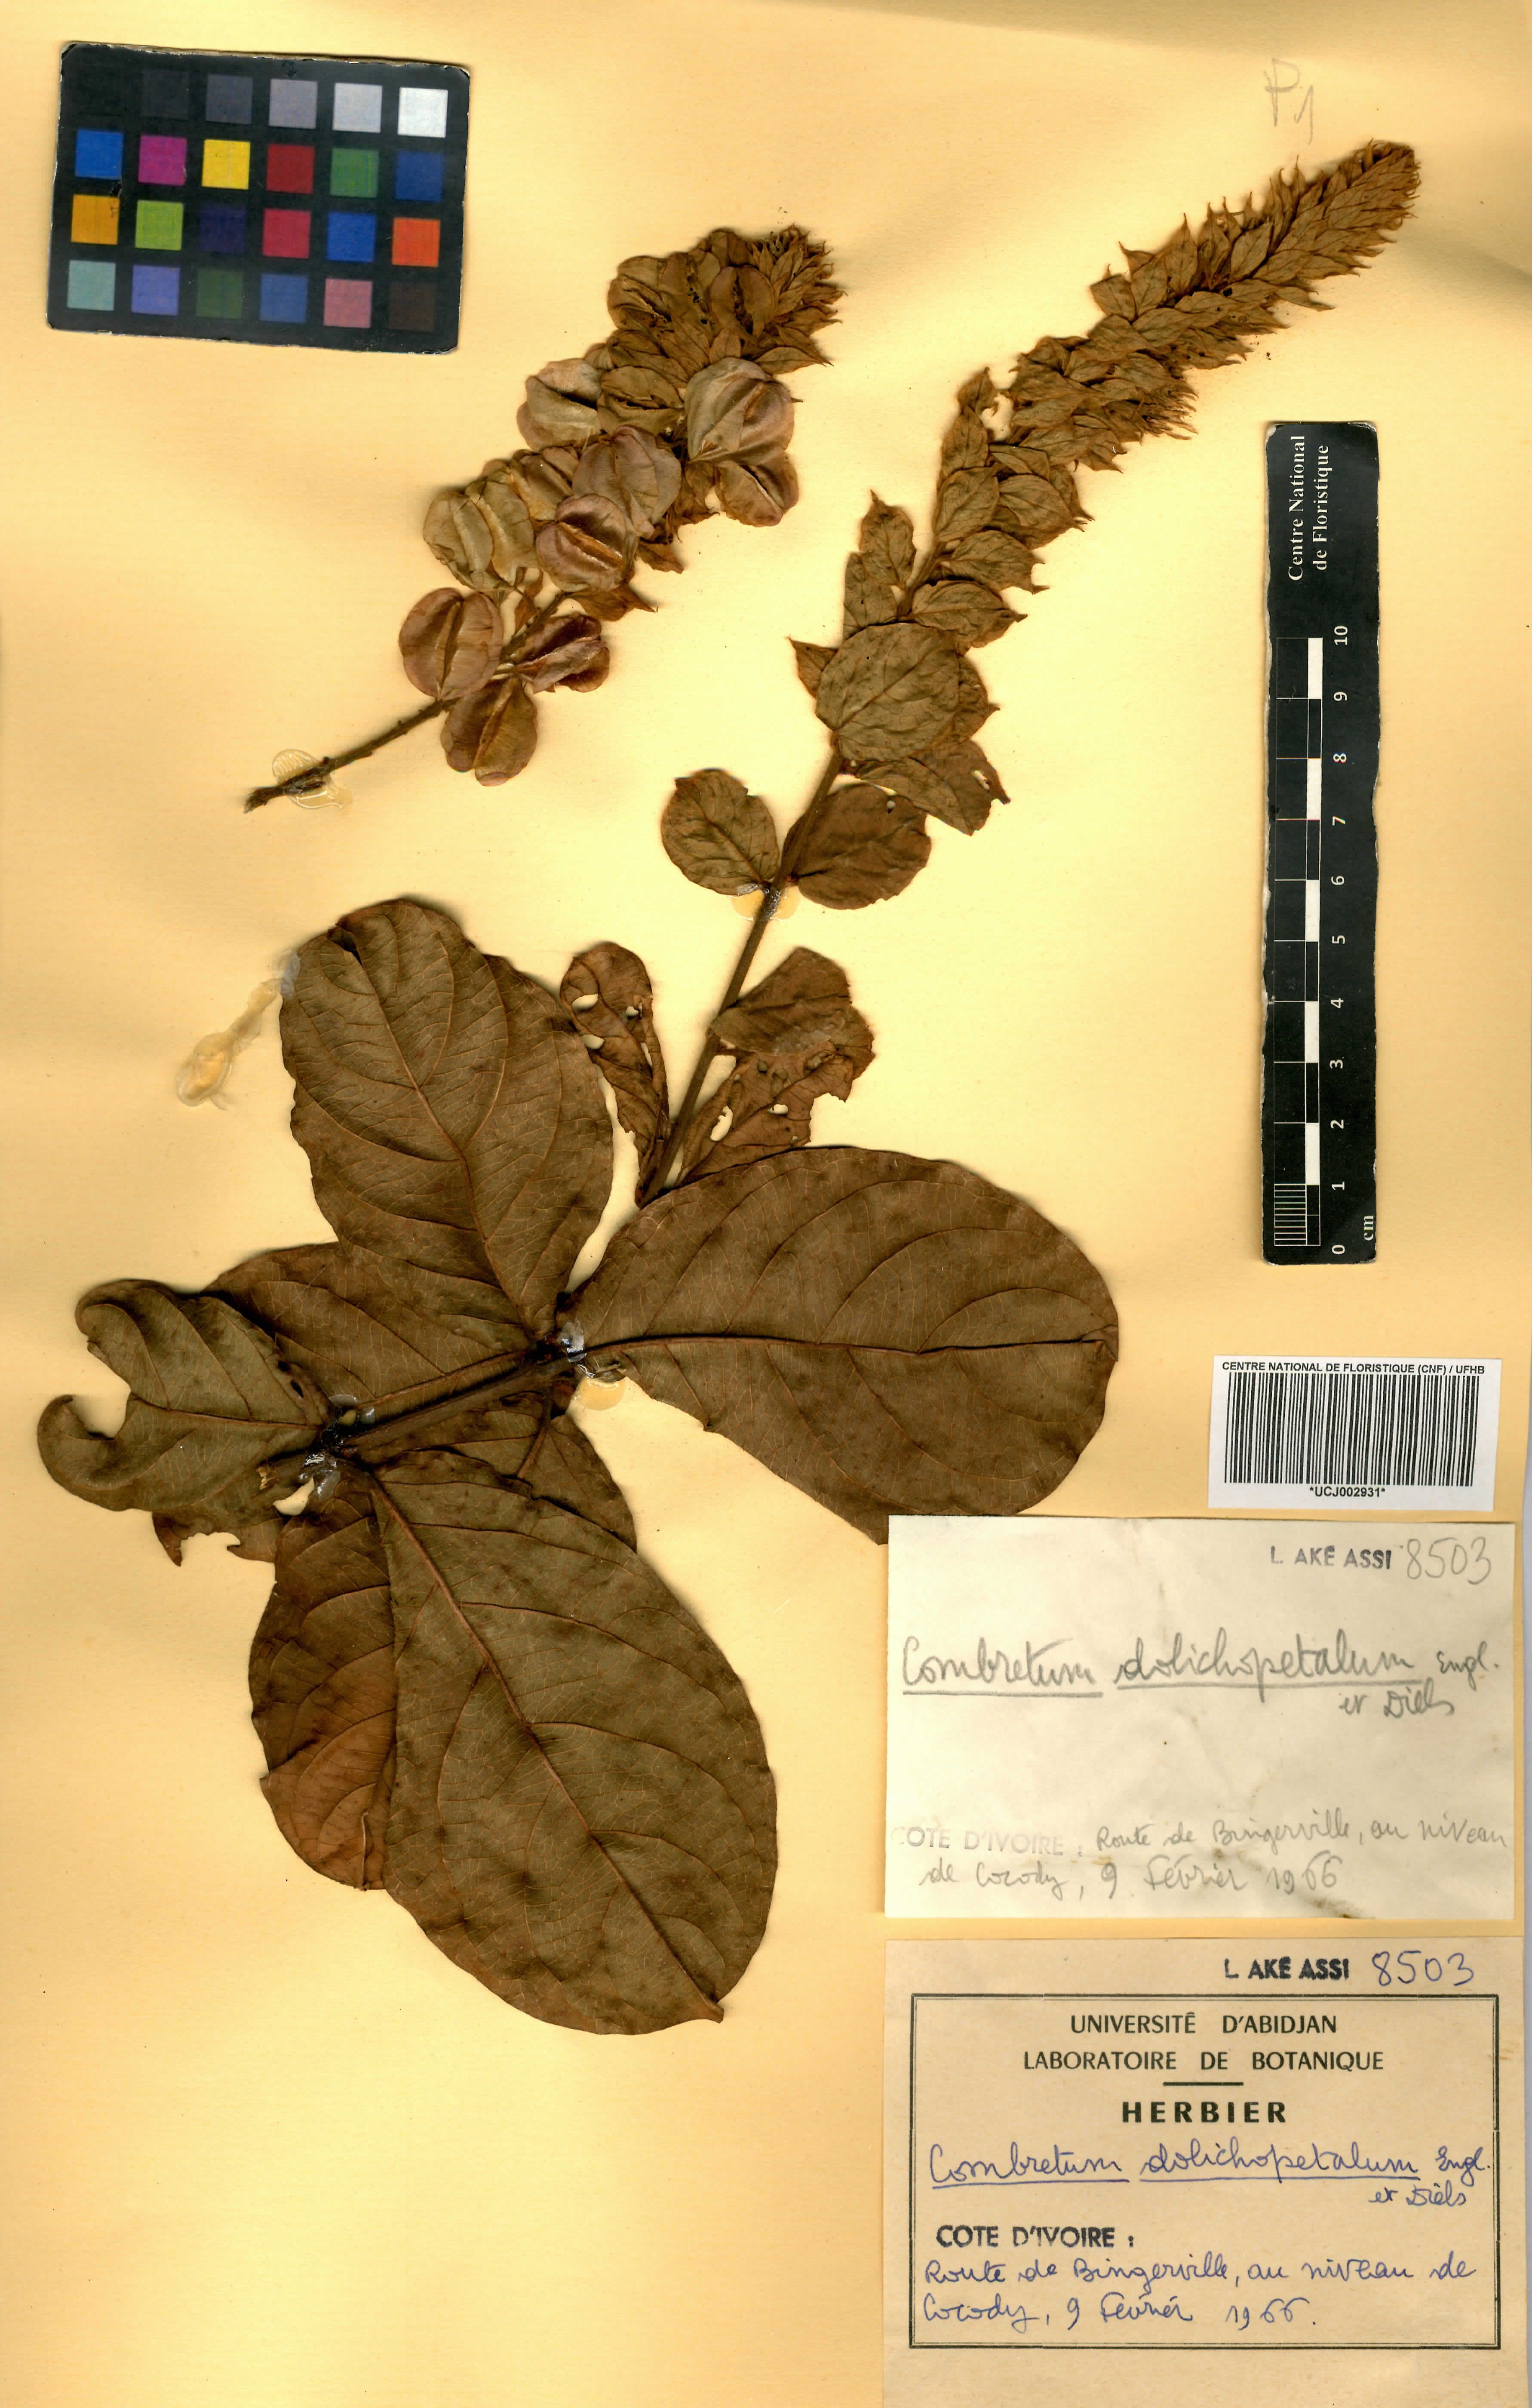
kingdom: Plantae
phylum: Tracheophyta
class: Magnoliopsida
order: Myrtales
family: Combretaceae
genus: Combretum
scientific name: Combretum comosum
